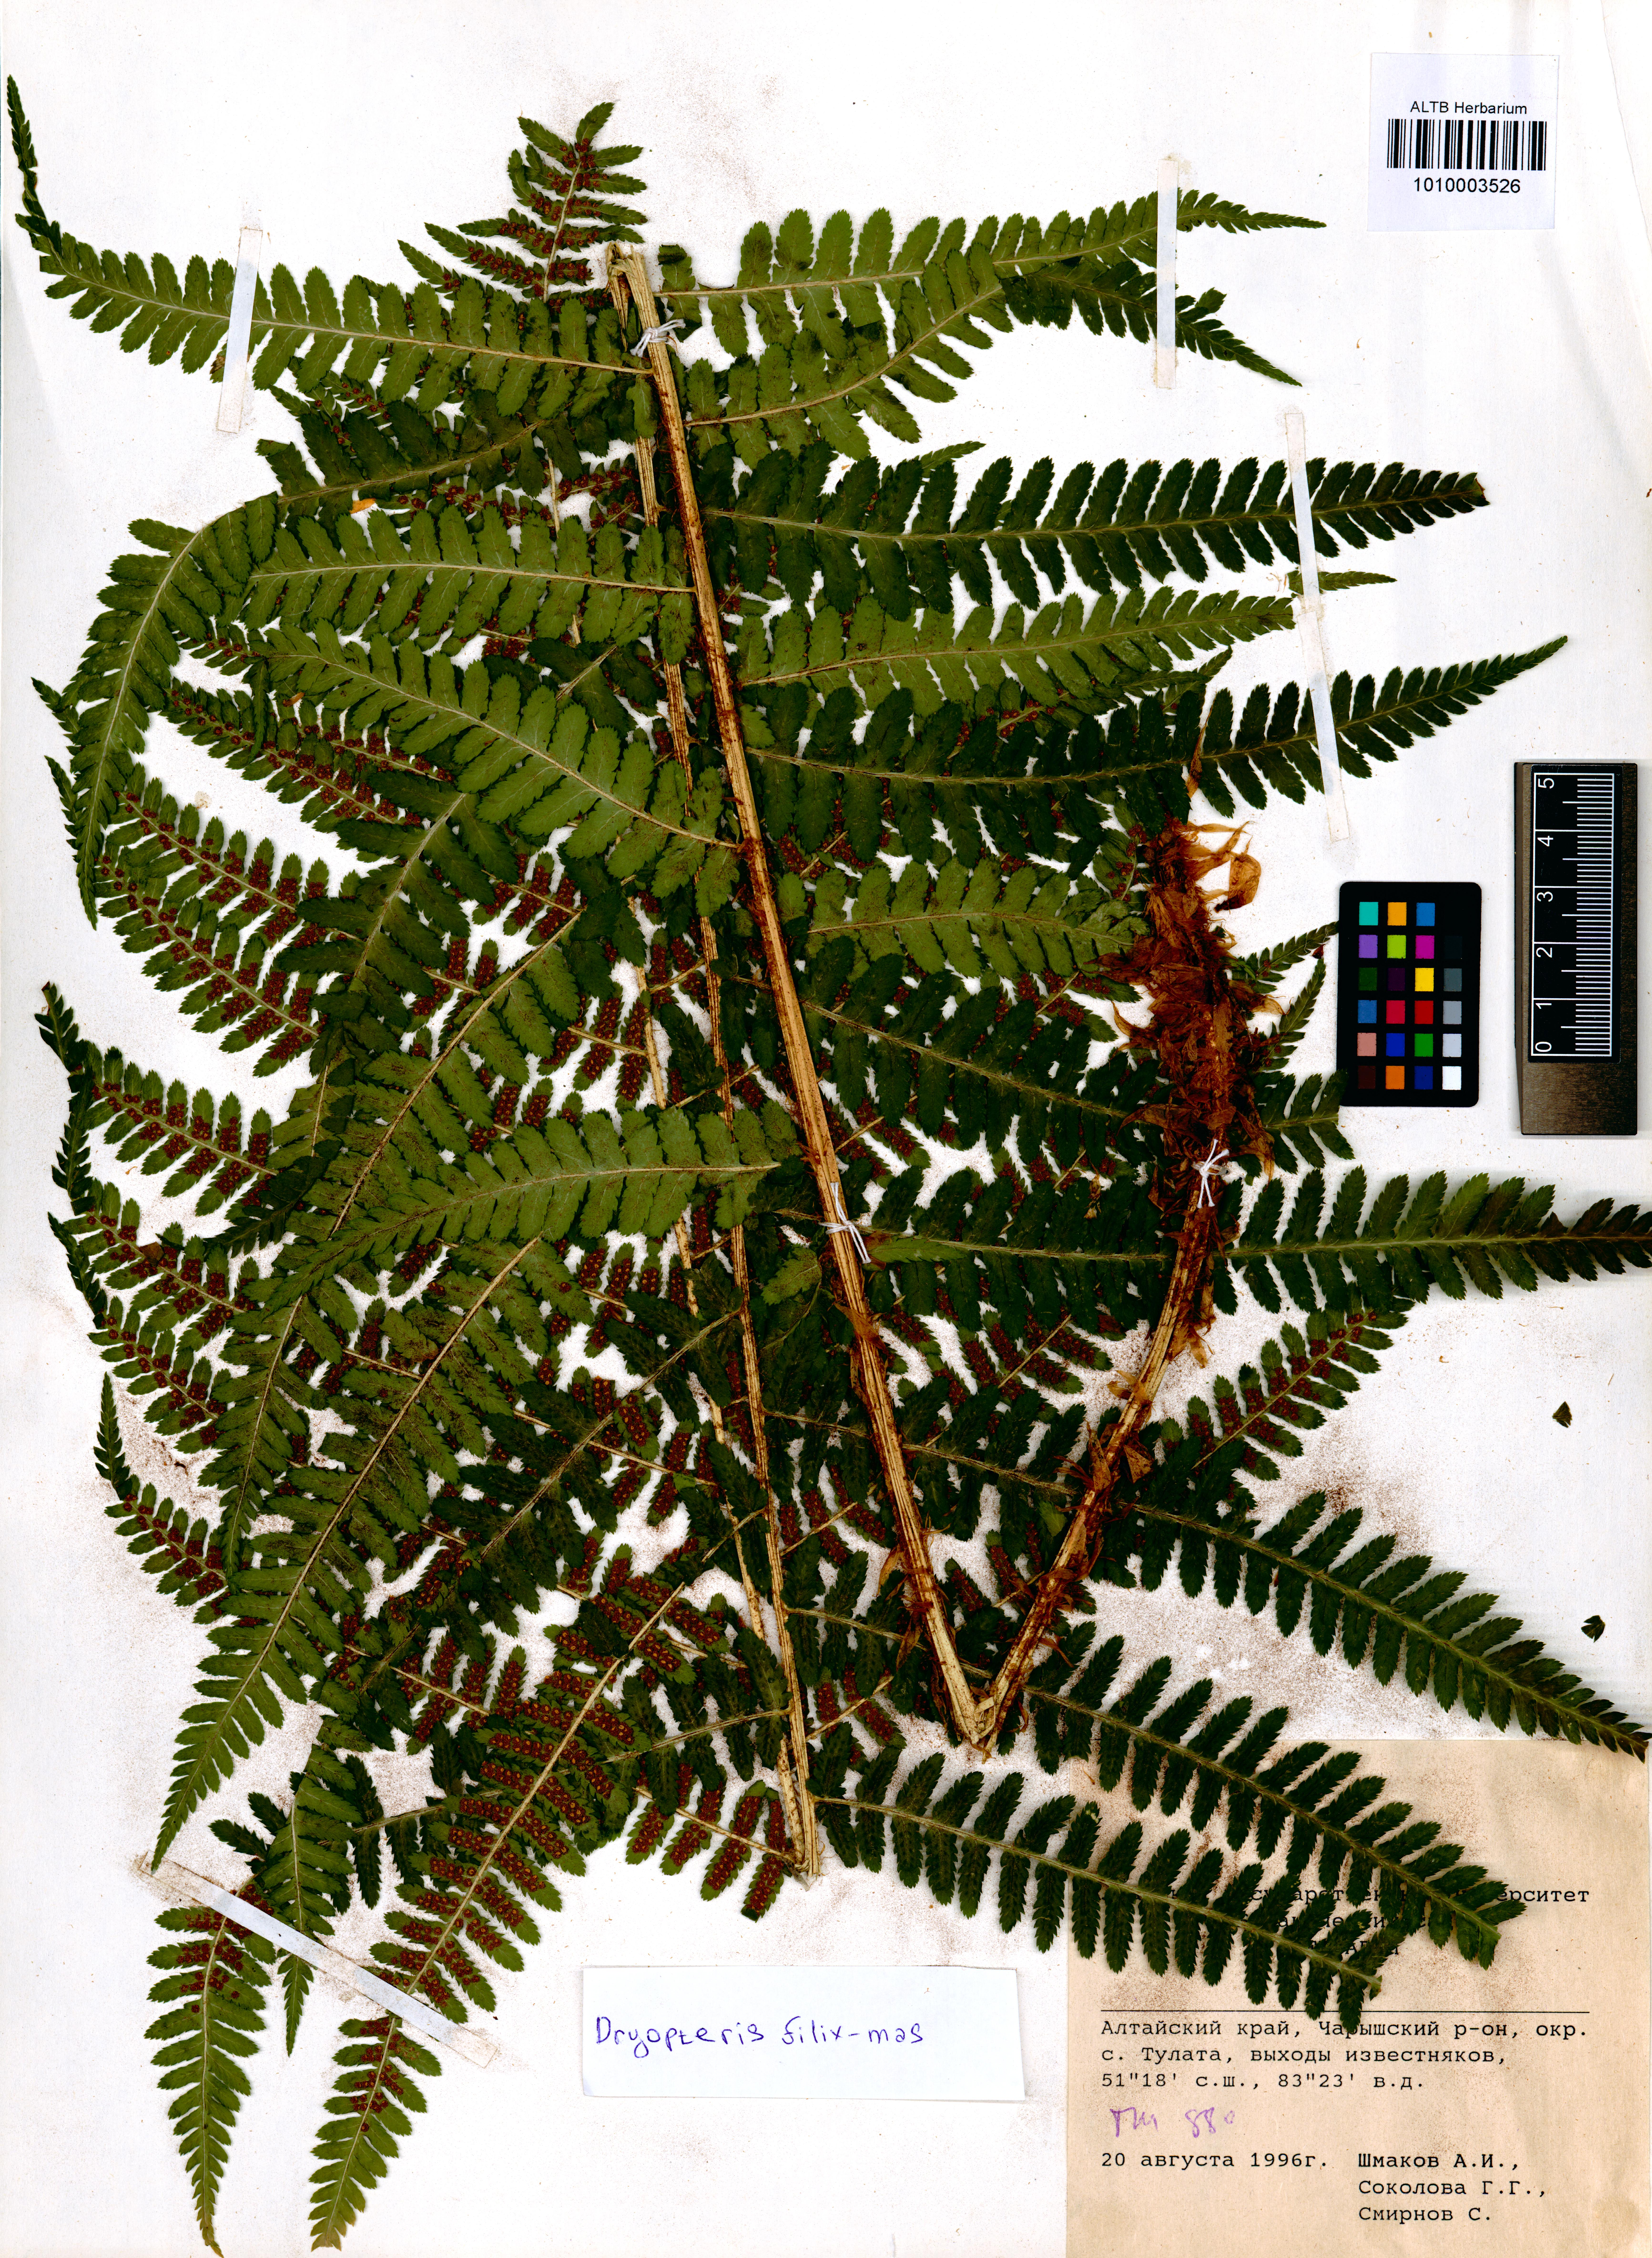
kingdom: Plantae
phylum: Tracheophyta
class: Polypodiopsida
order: Polypodiales
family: Dryopteridaceae
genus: Dryopteris
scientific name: Dryopteris filix-mas
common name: Male fern
